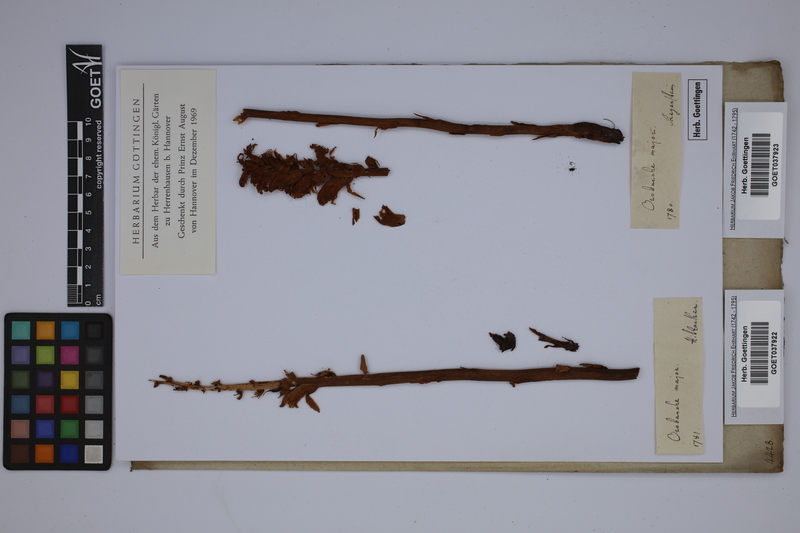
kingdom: Plantae
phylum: Tracheophyta
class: Magnoliopsida
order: Lamiales
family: Orobanchaceae
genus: Orobanche
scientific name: Orobanche rapum-genistae
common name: Greater broomrape
